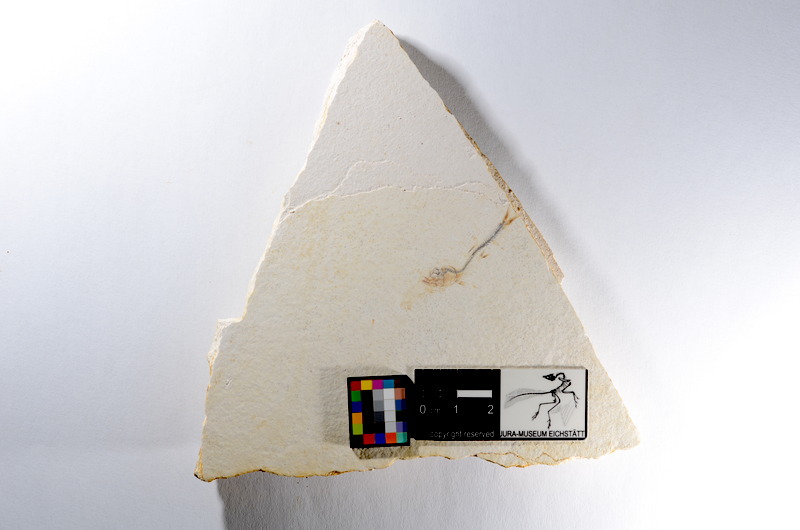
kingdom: Animalia
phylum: Chordata
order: Salmoniformes
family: Orthogonikleithridae
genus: Orthogonikleithrus
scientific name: Orthogonikleithrus hoelli
